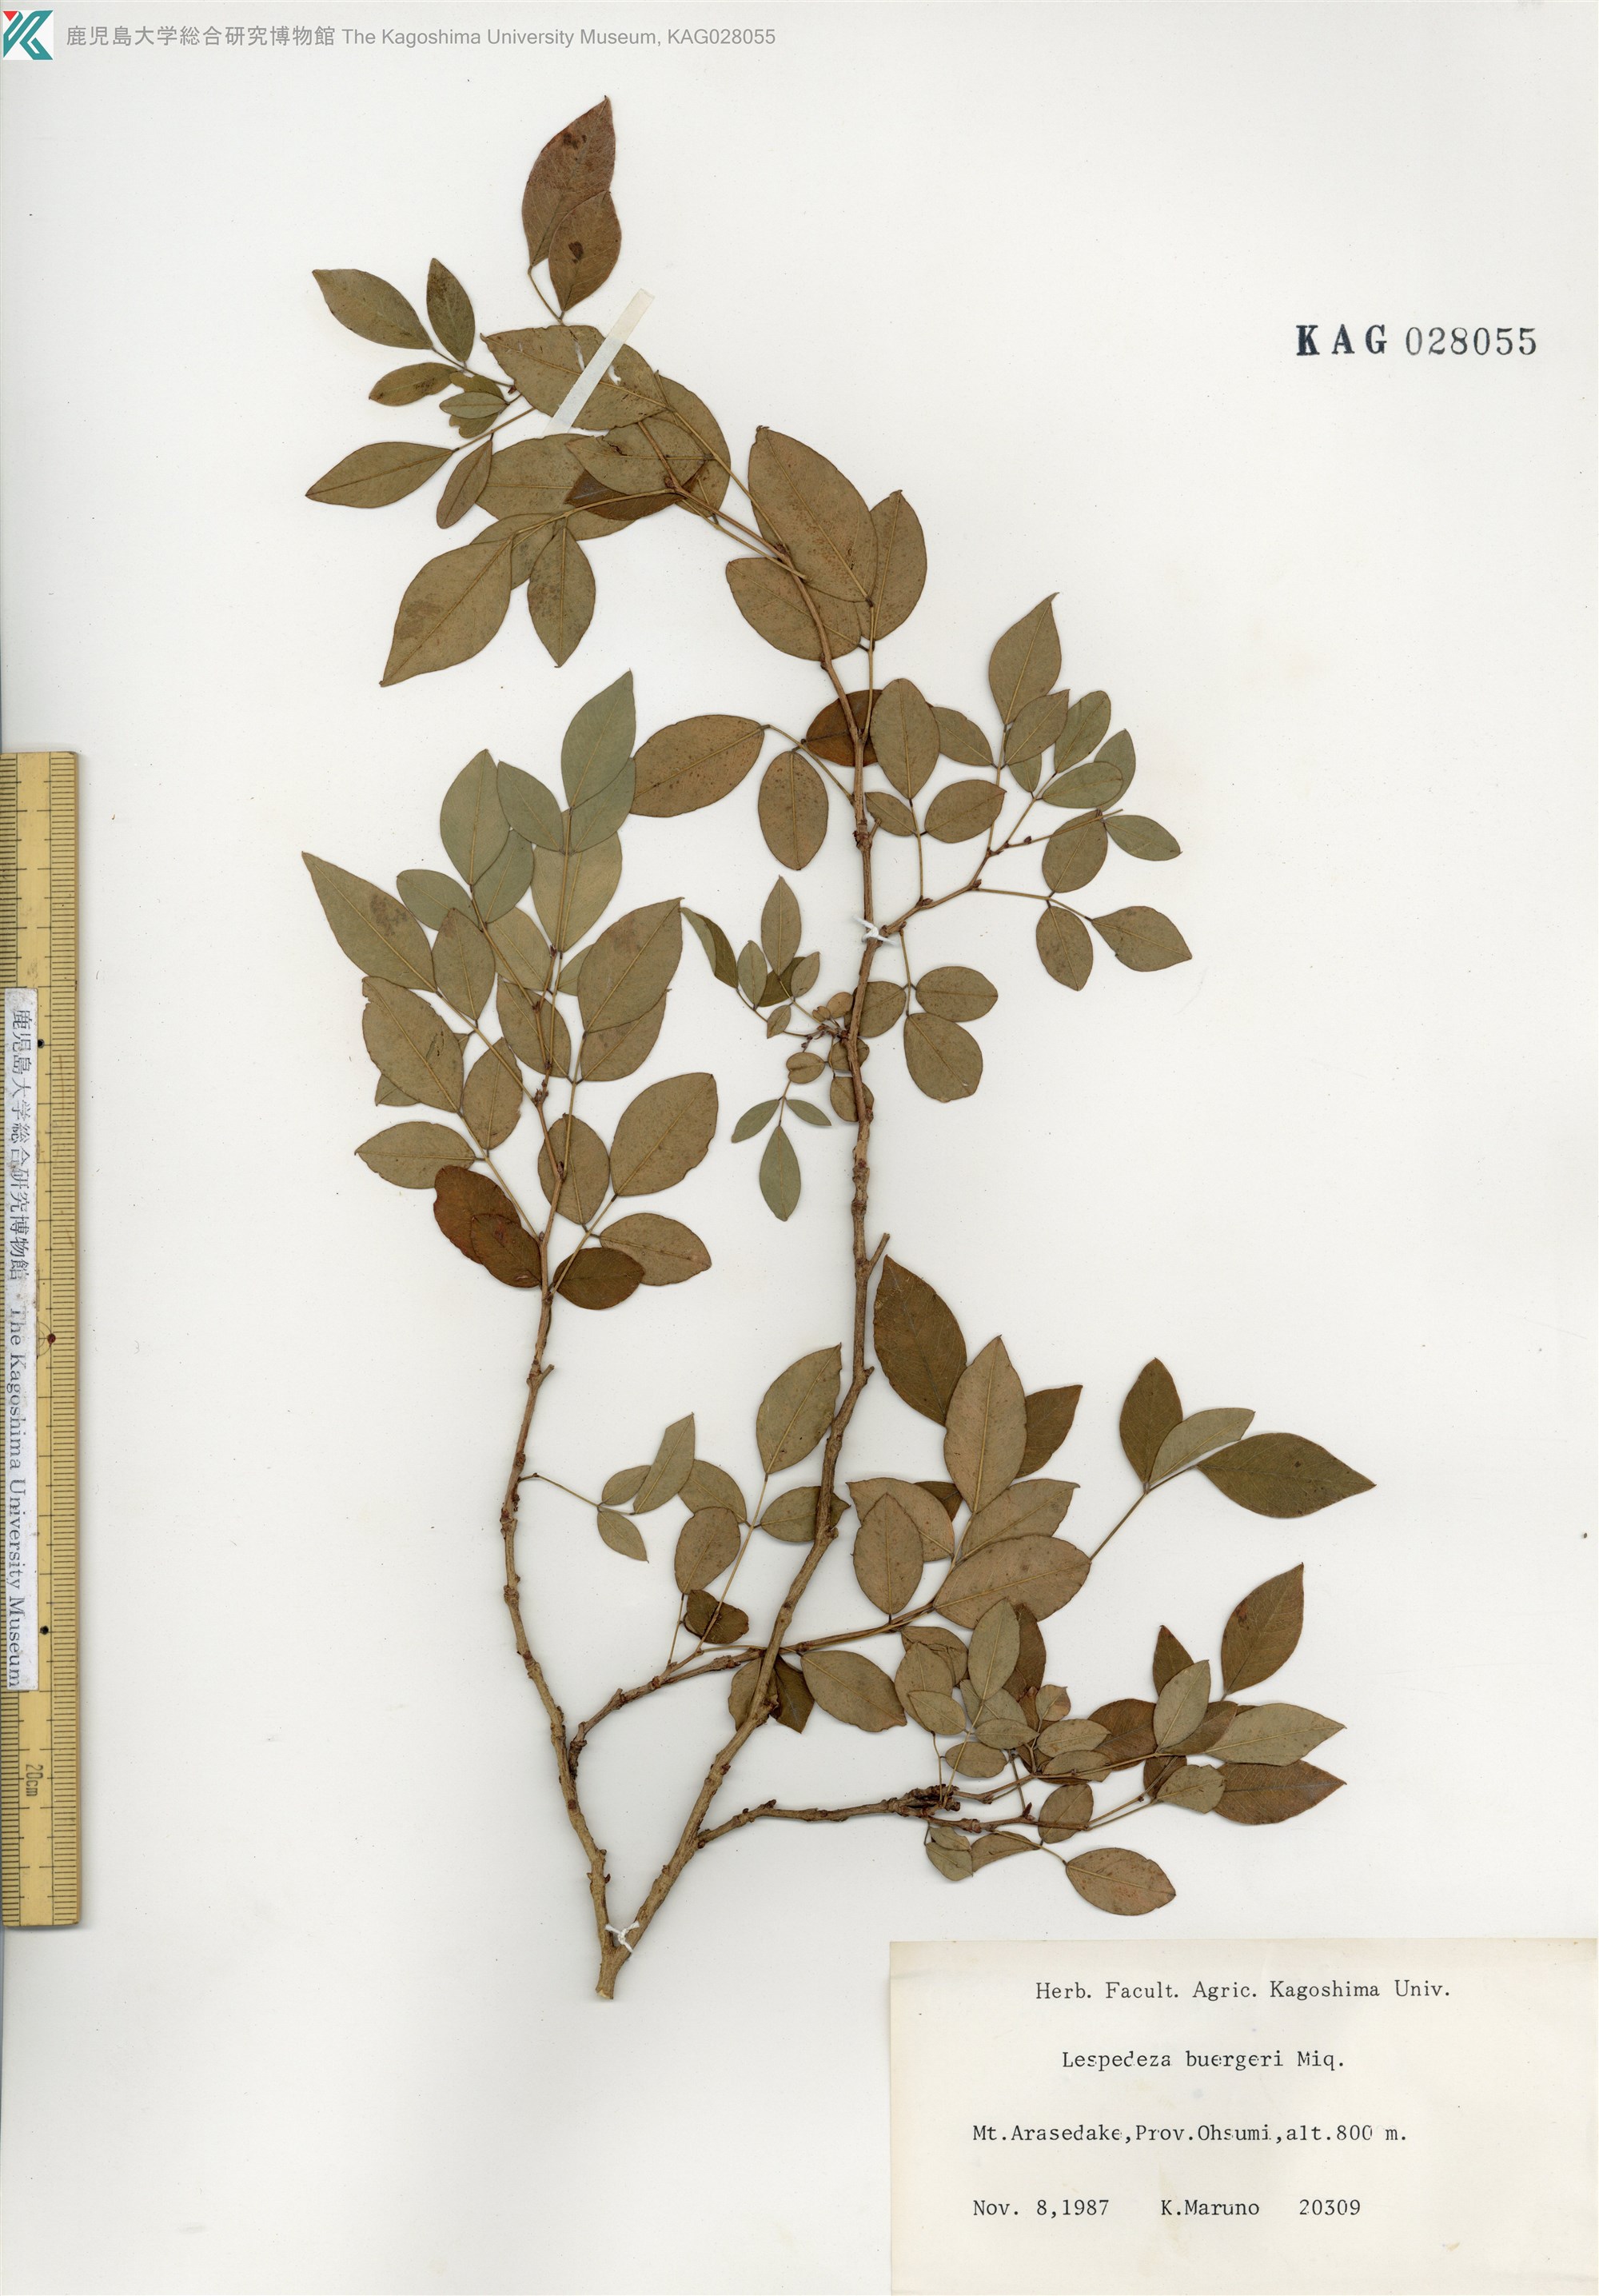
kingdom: Plantae
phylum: Tracheophyta
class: Magnoliopsida
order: Fabales
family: Fabaceae
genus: Lespedeza
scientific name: Lespedeza buergeri
